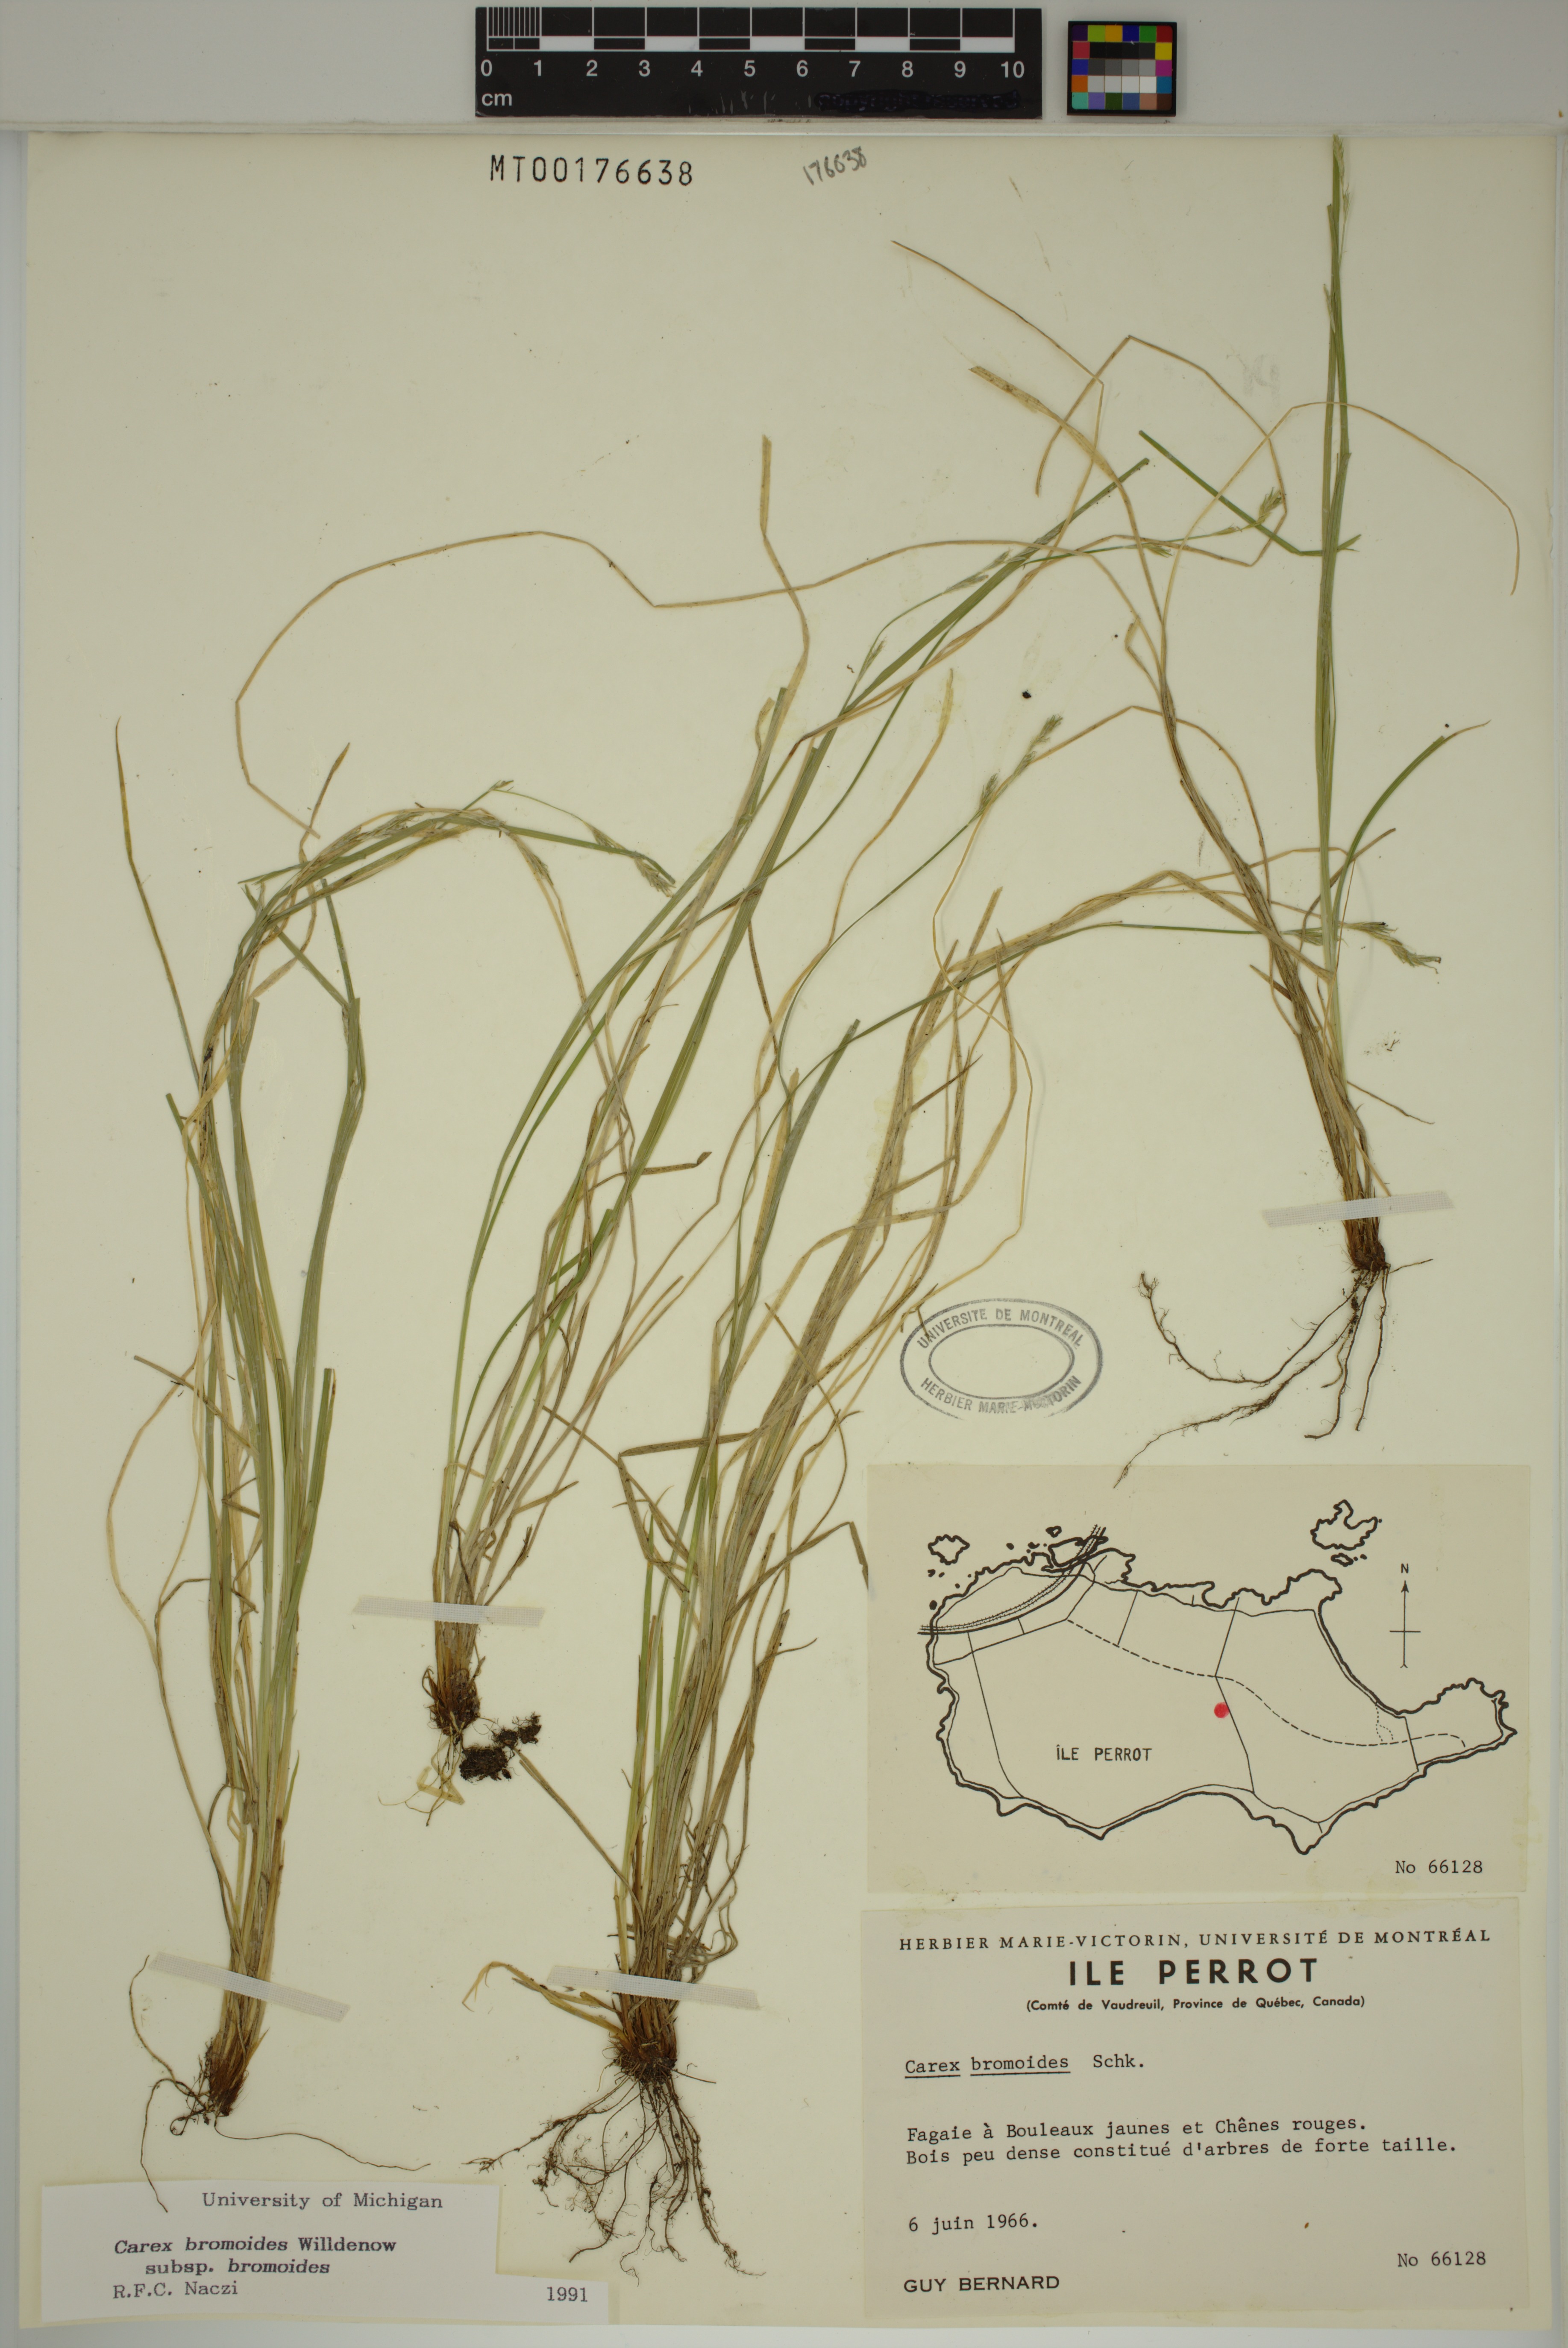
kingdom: Plantae
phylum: Tracheophyta
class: Liliopsida
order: Poales
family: Cyperaceae
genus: Carex
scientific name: Carex bromoides
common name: Brome hummock sedge
